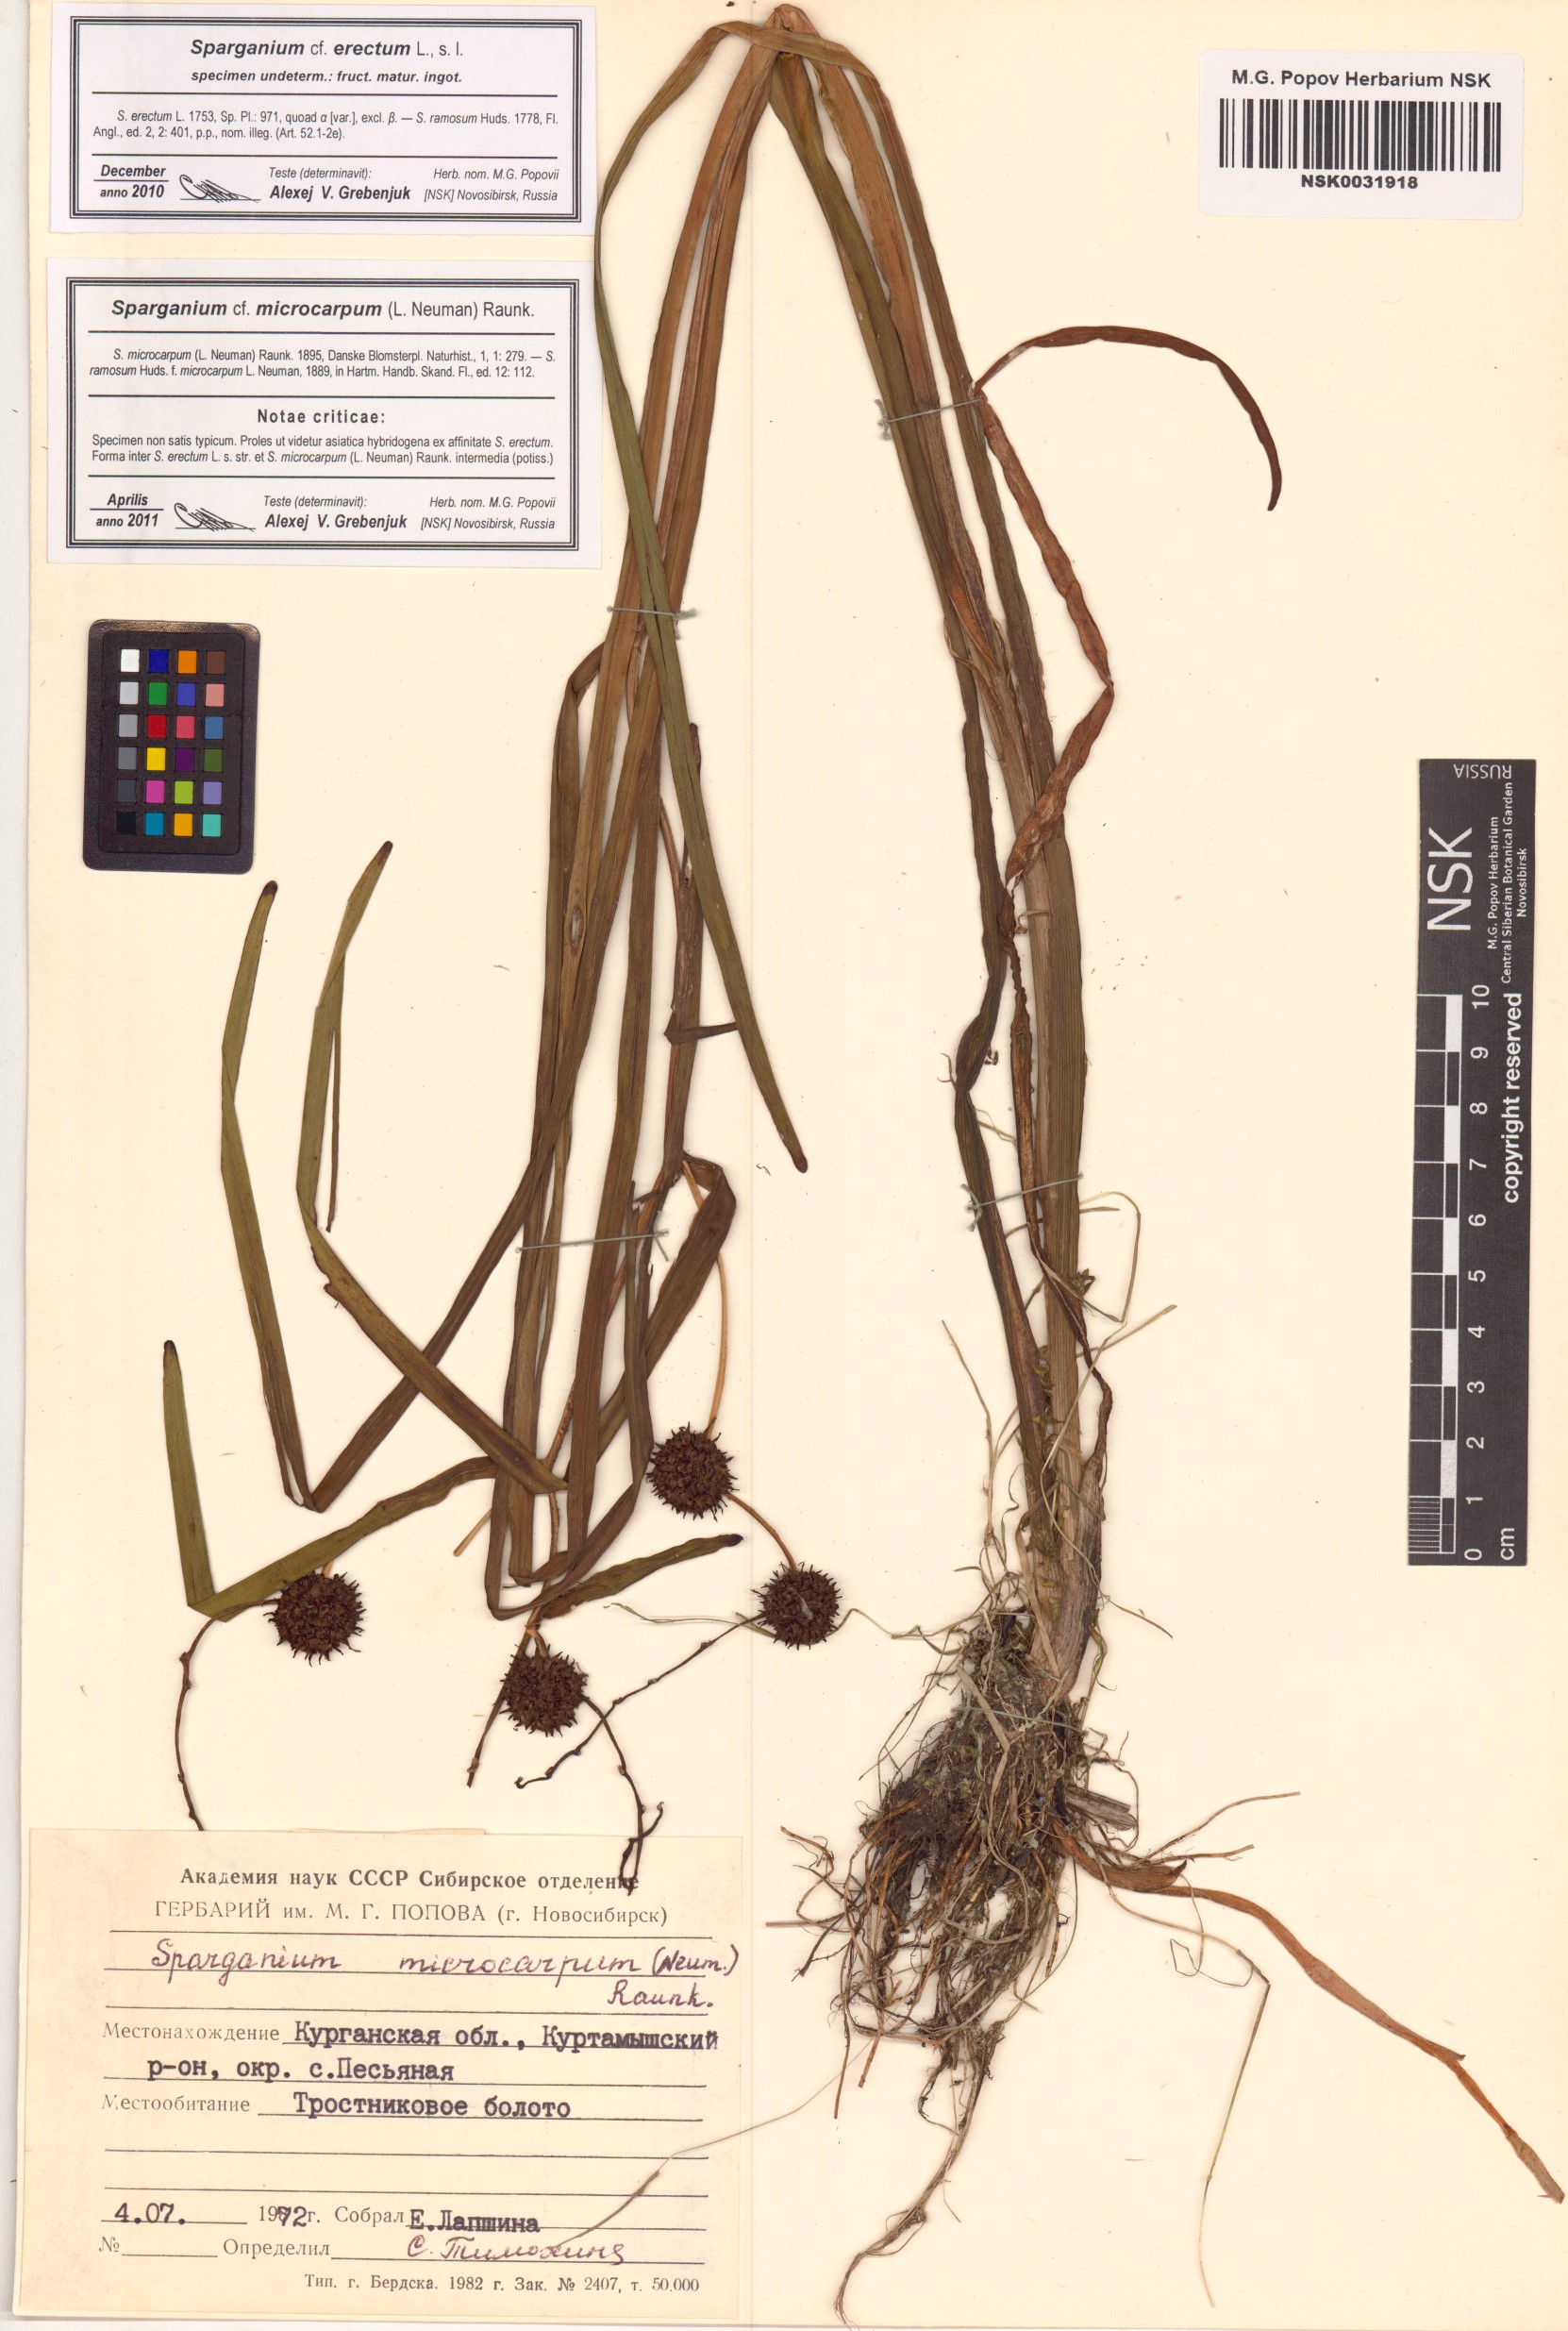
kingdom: Plantae
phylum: Tracheophyta
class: Liliopsida
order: Poales
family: Typhaceae
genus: Sparganium
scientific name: Sparganium erectum
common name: Branched bur-reed
